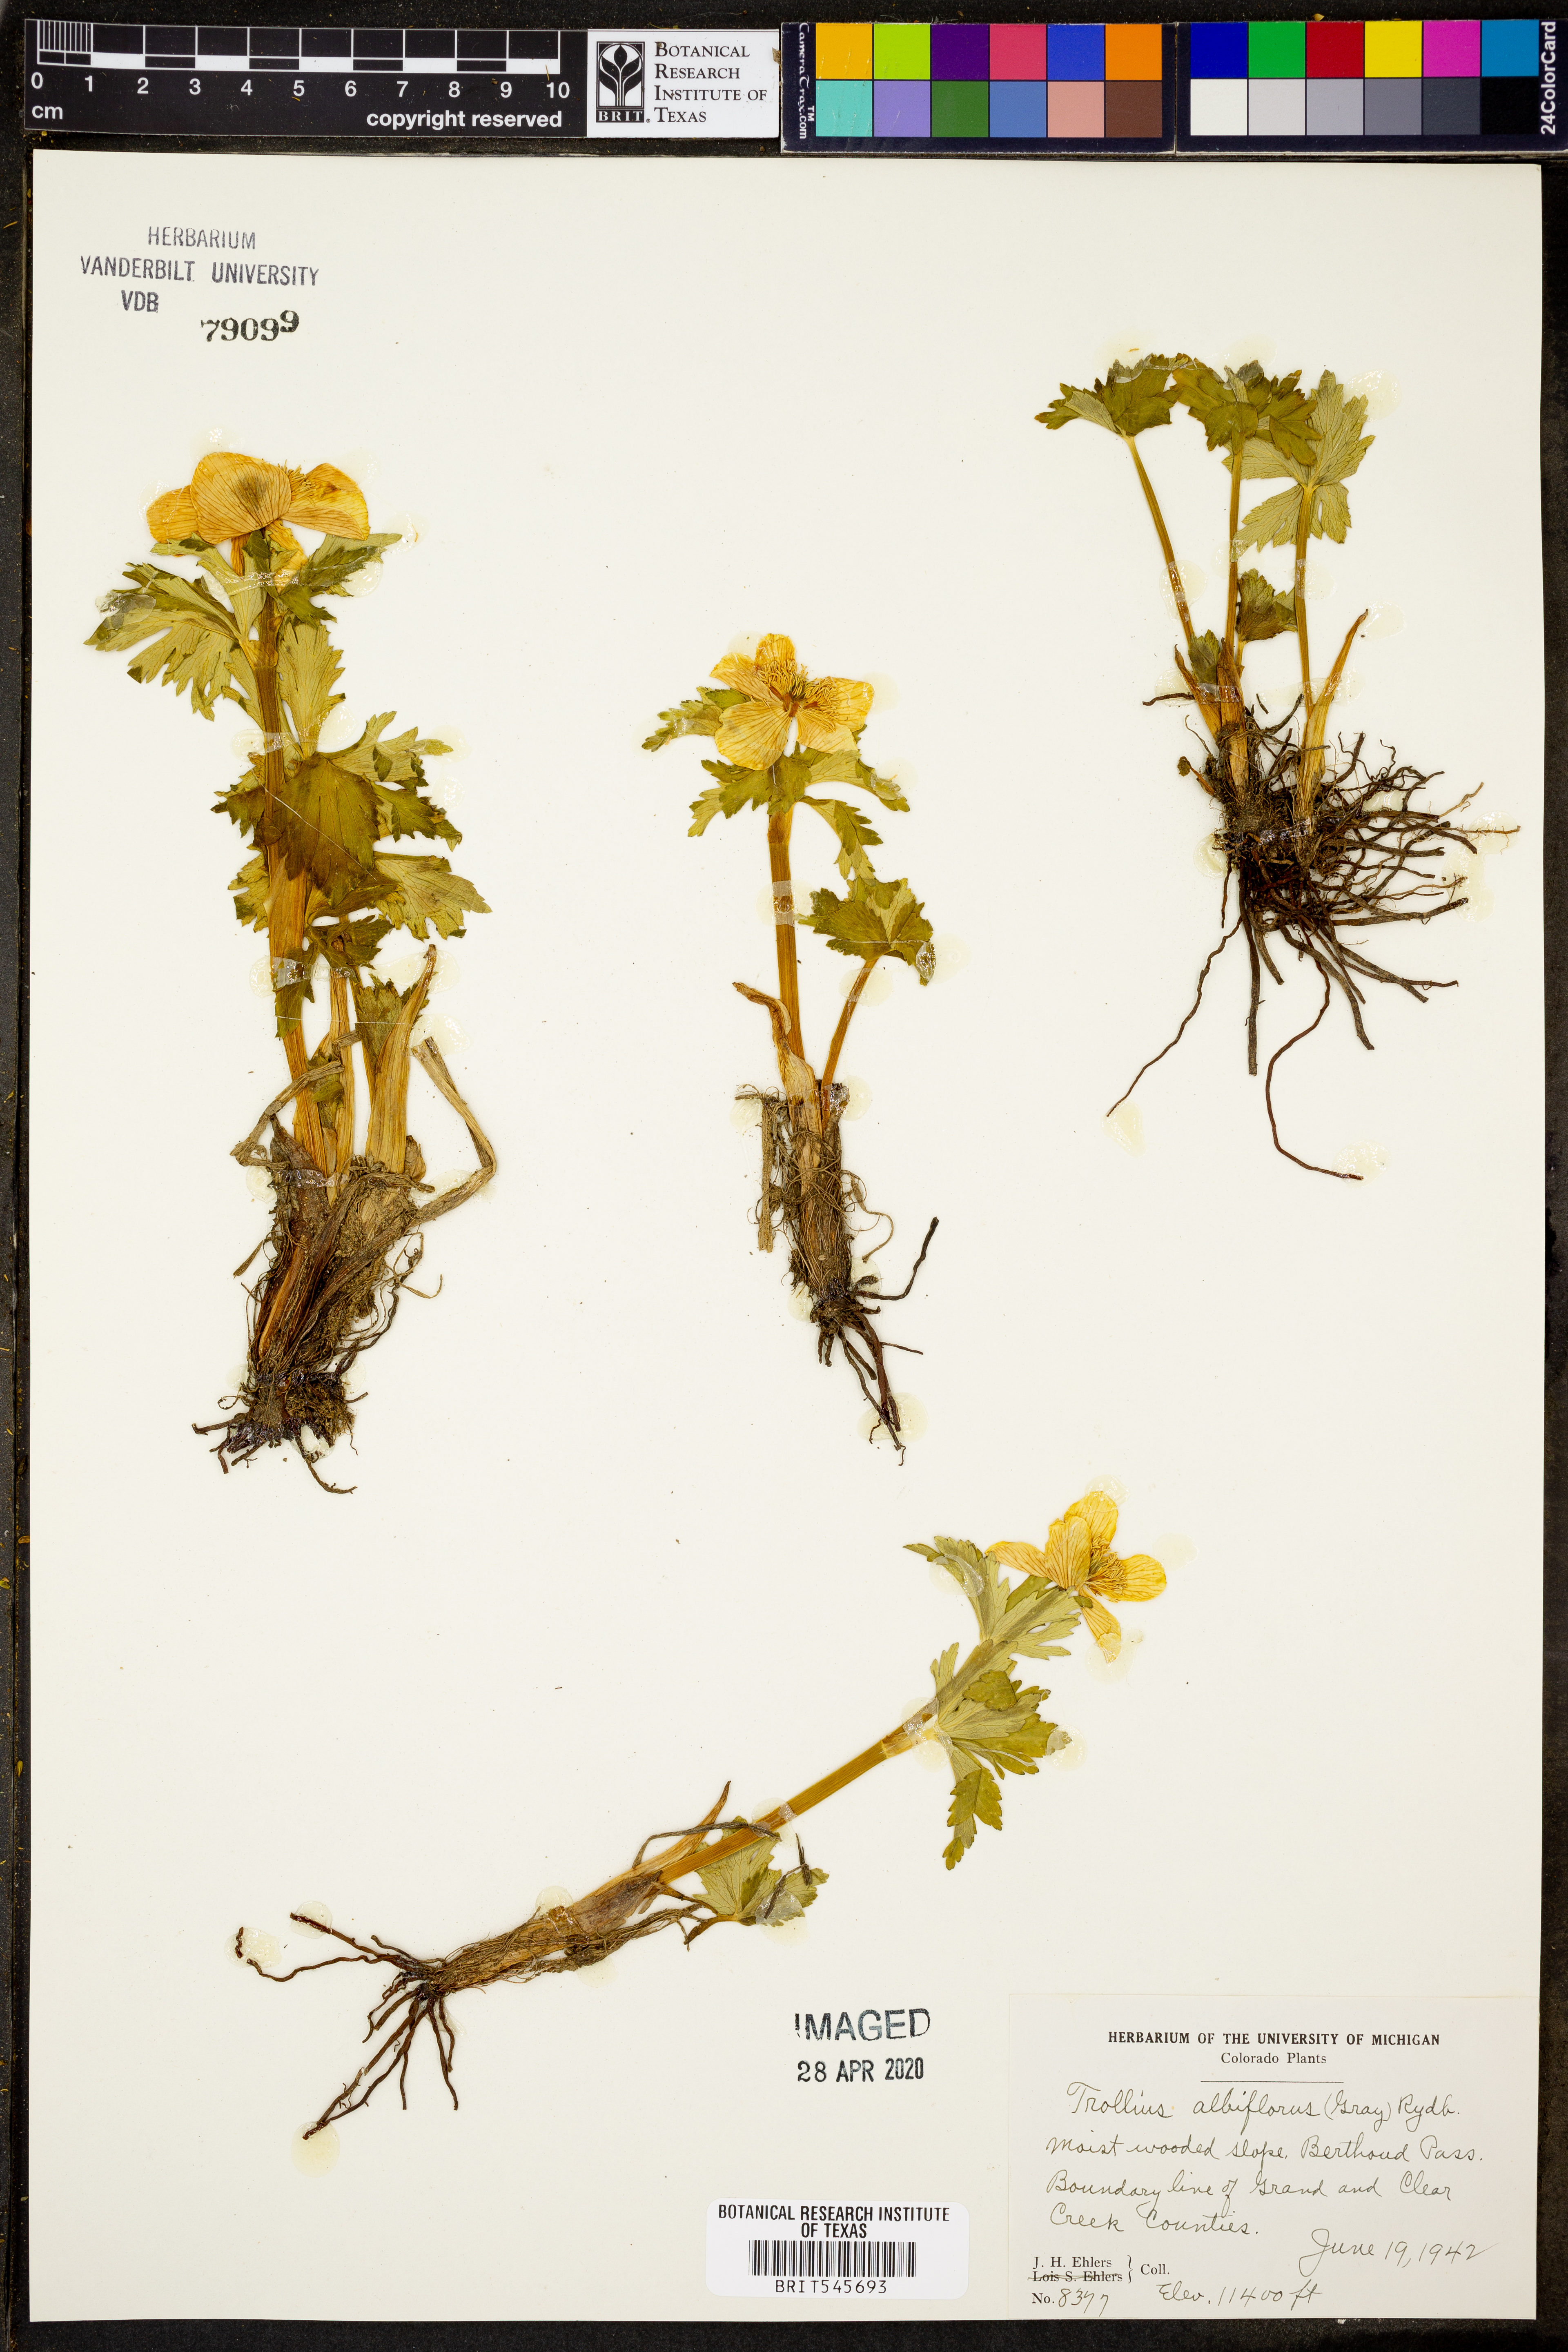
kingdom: Plantae
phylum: Tracheophyta
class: Magnoliopsida
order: Ranunculales
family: Ranunculaceae
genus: Trollius
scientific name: Trollius laxus
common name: American globeflower
